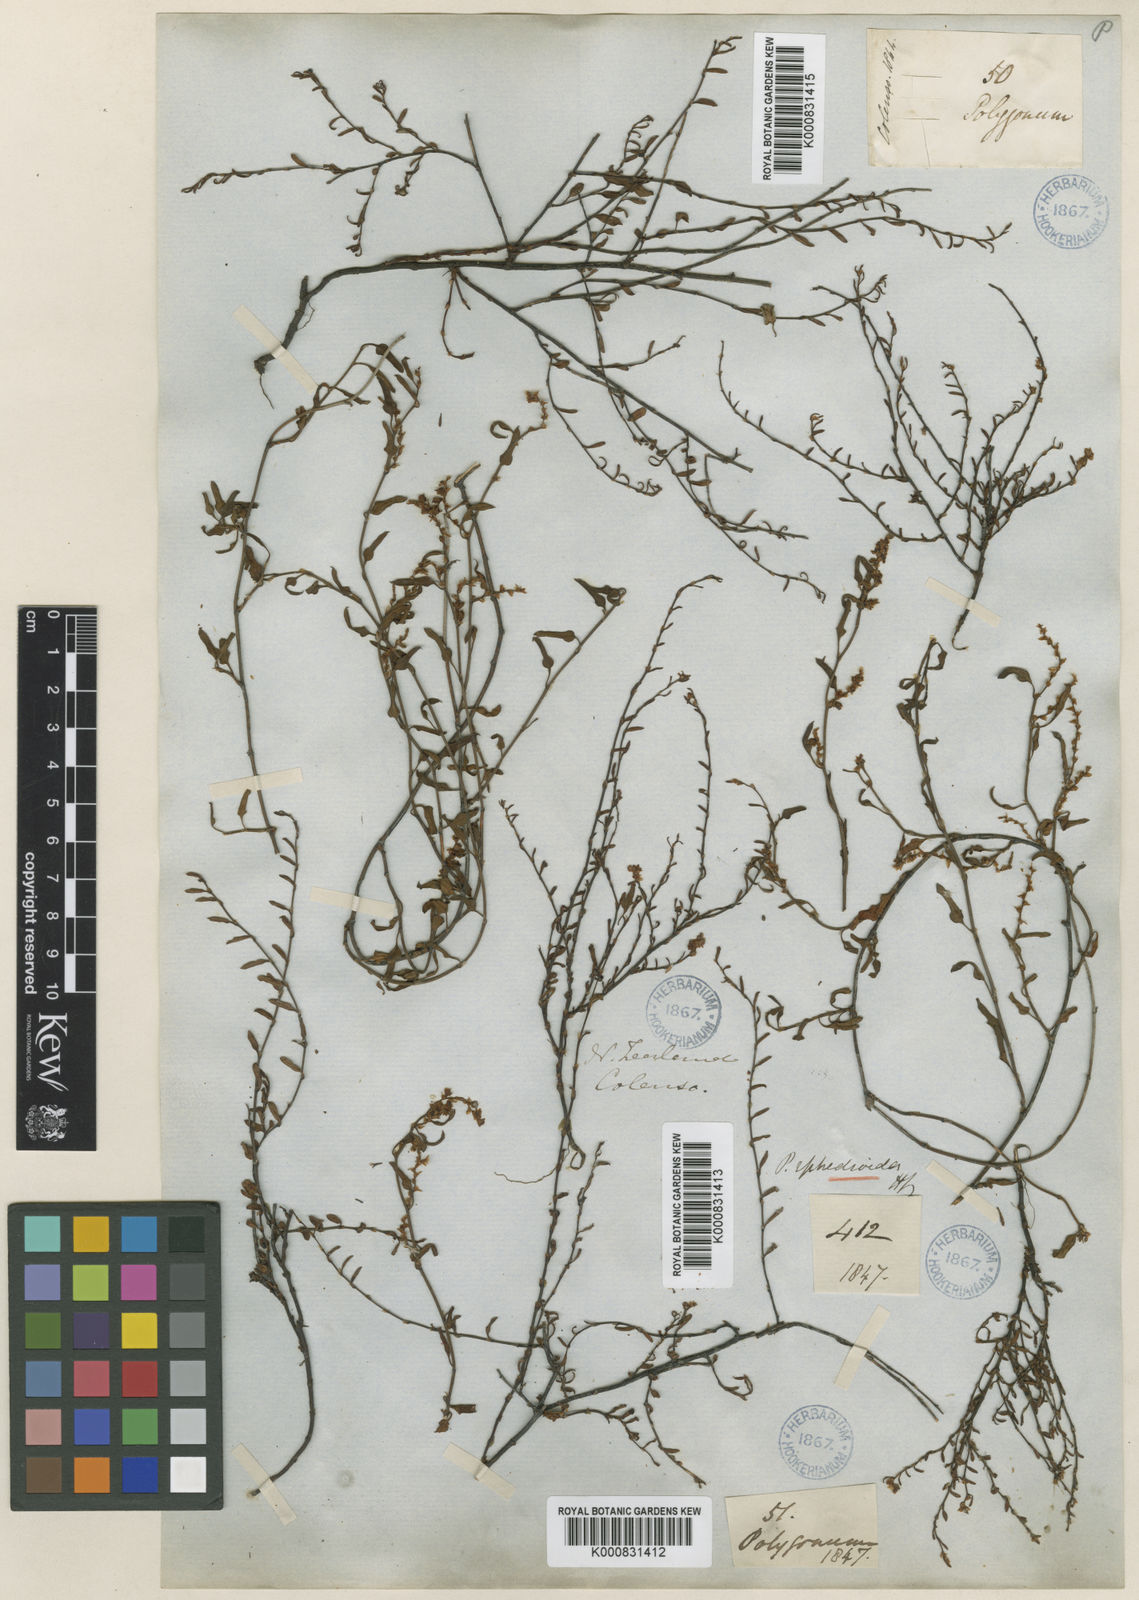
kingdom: Plantae
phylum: Tracheophyta
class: Magnoliopsida
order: Caryophyllales
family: Polygonaceae
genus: Muehlenbeckia
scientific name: Muehlenbeckia ephedroides
